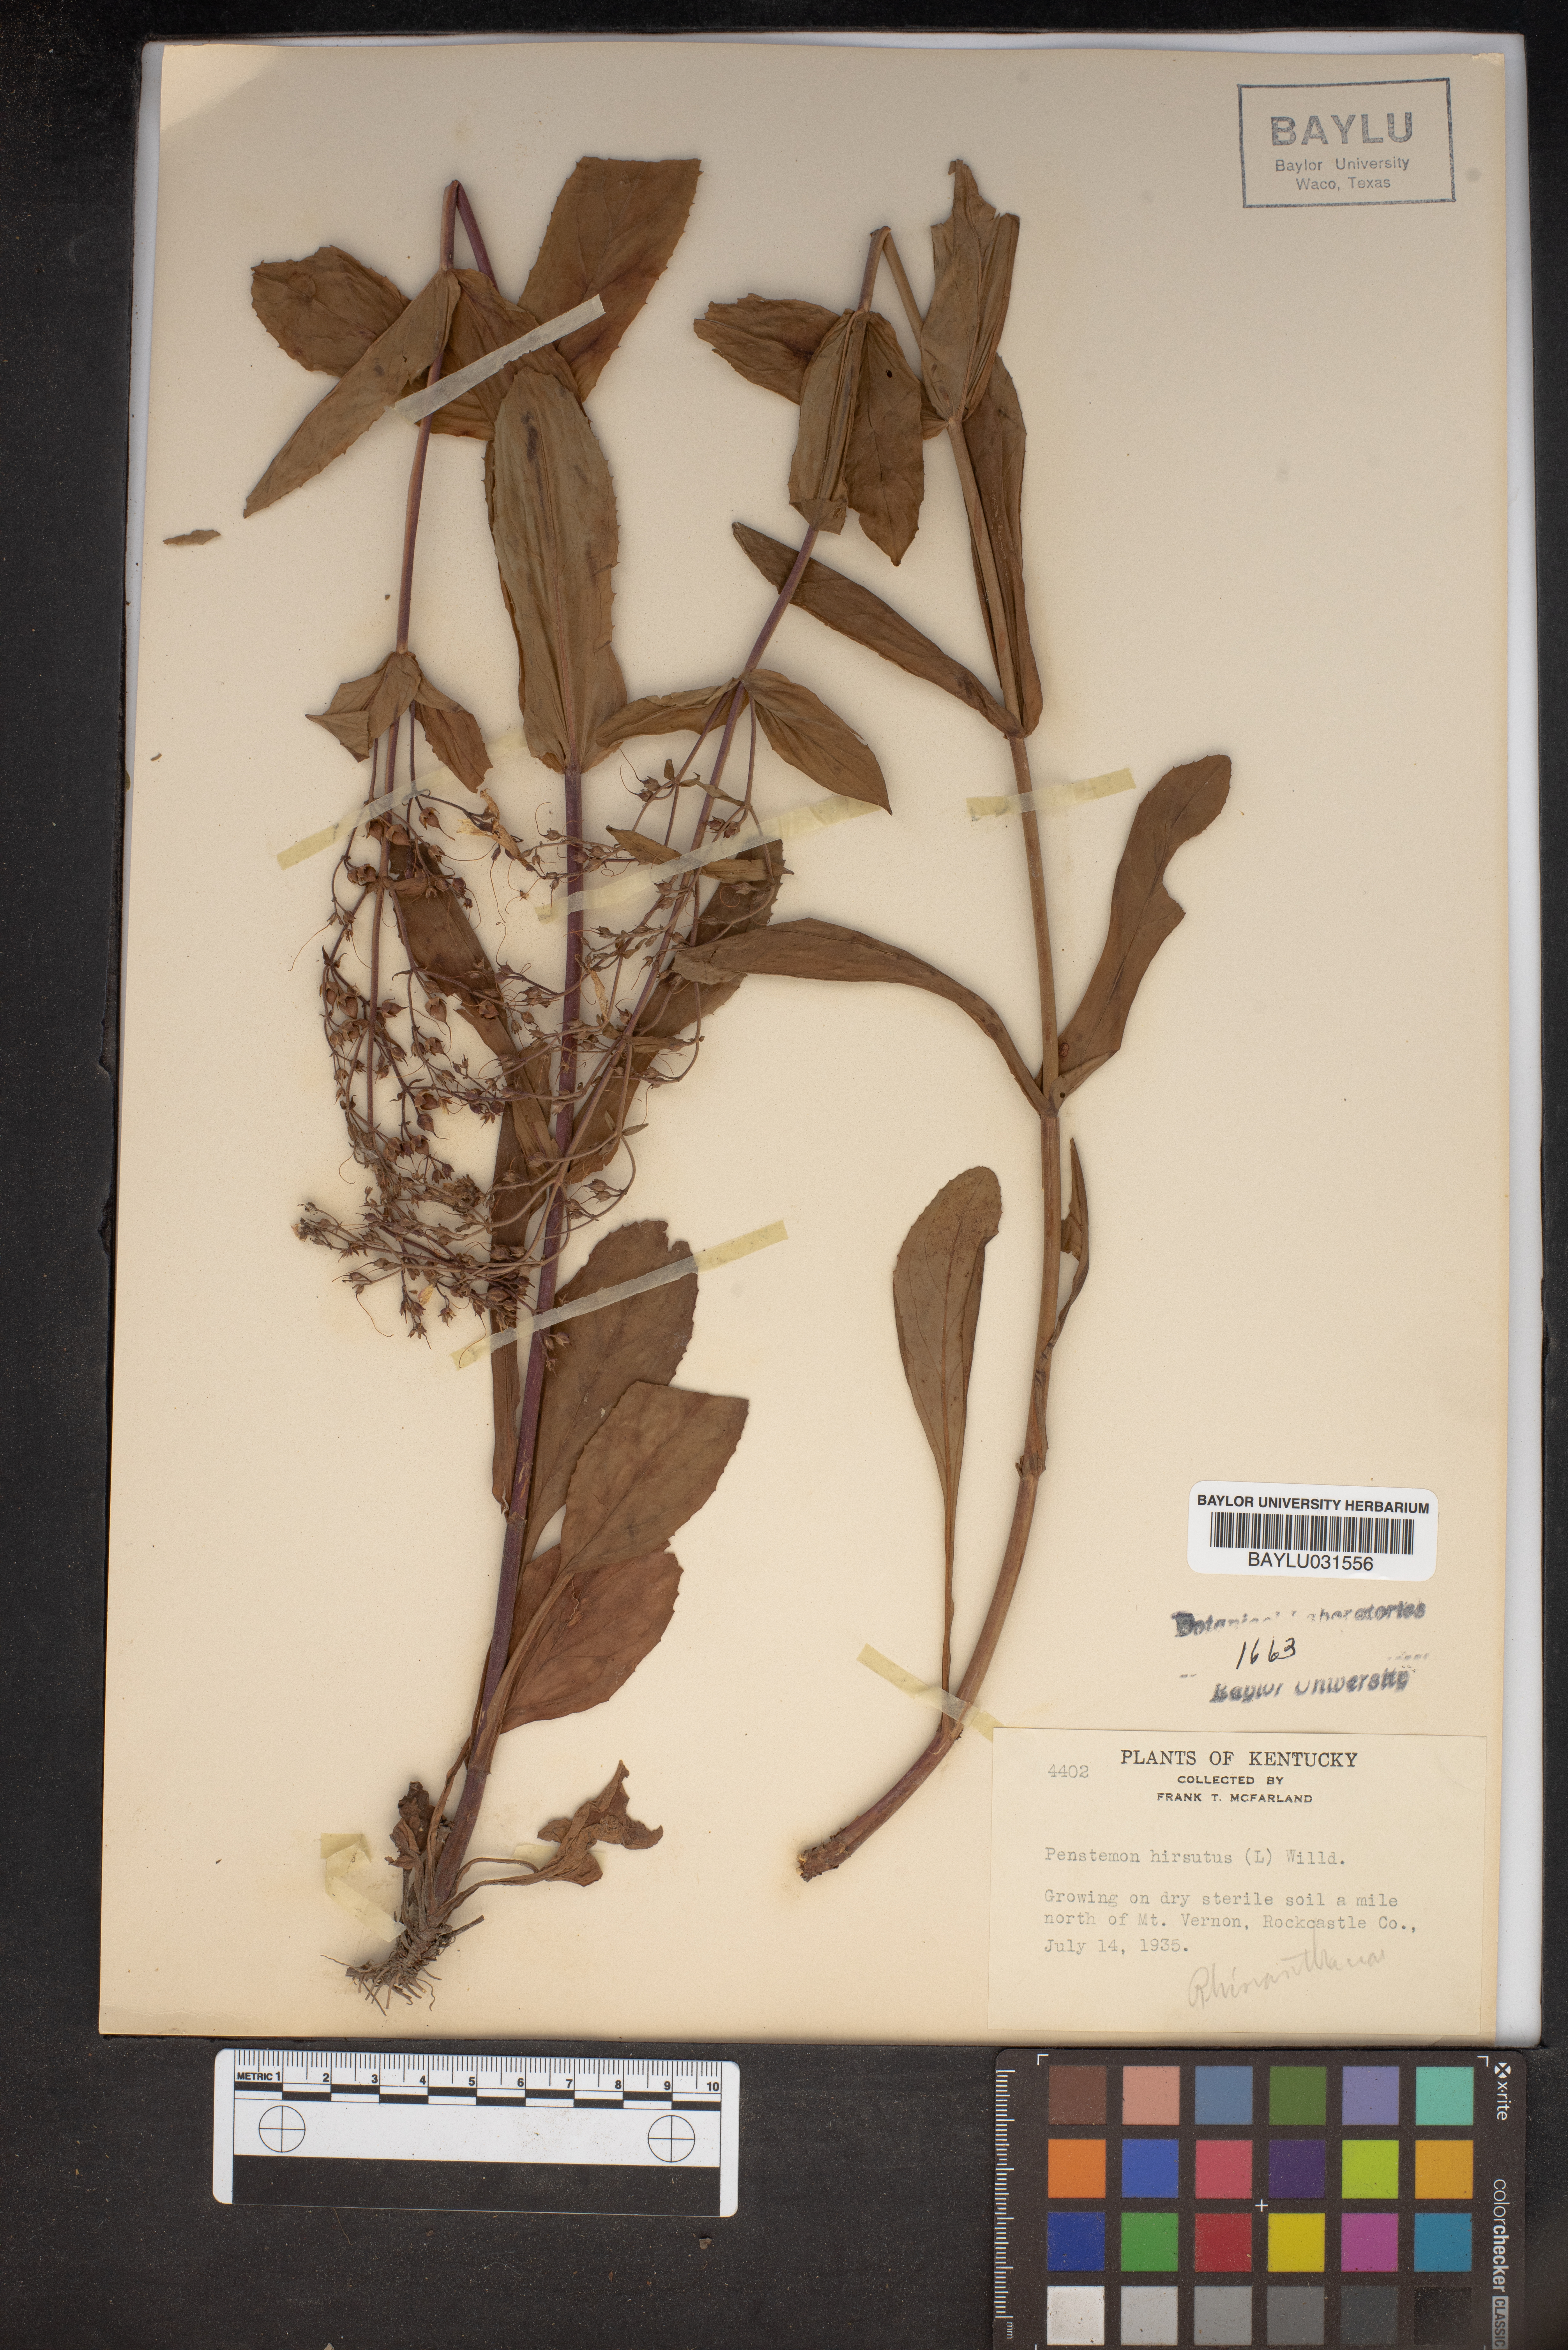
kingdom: Plantae
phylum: Tracheophyta
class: Magnoliopsida
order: Lamiales
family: Plantaginaceae
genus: Penstemon
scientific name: Penstemon hirsutus
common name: Hairy beardtongue
